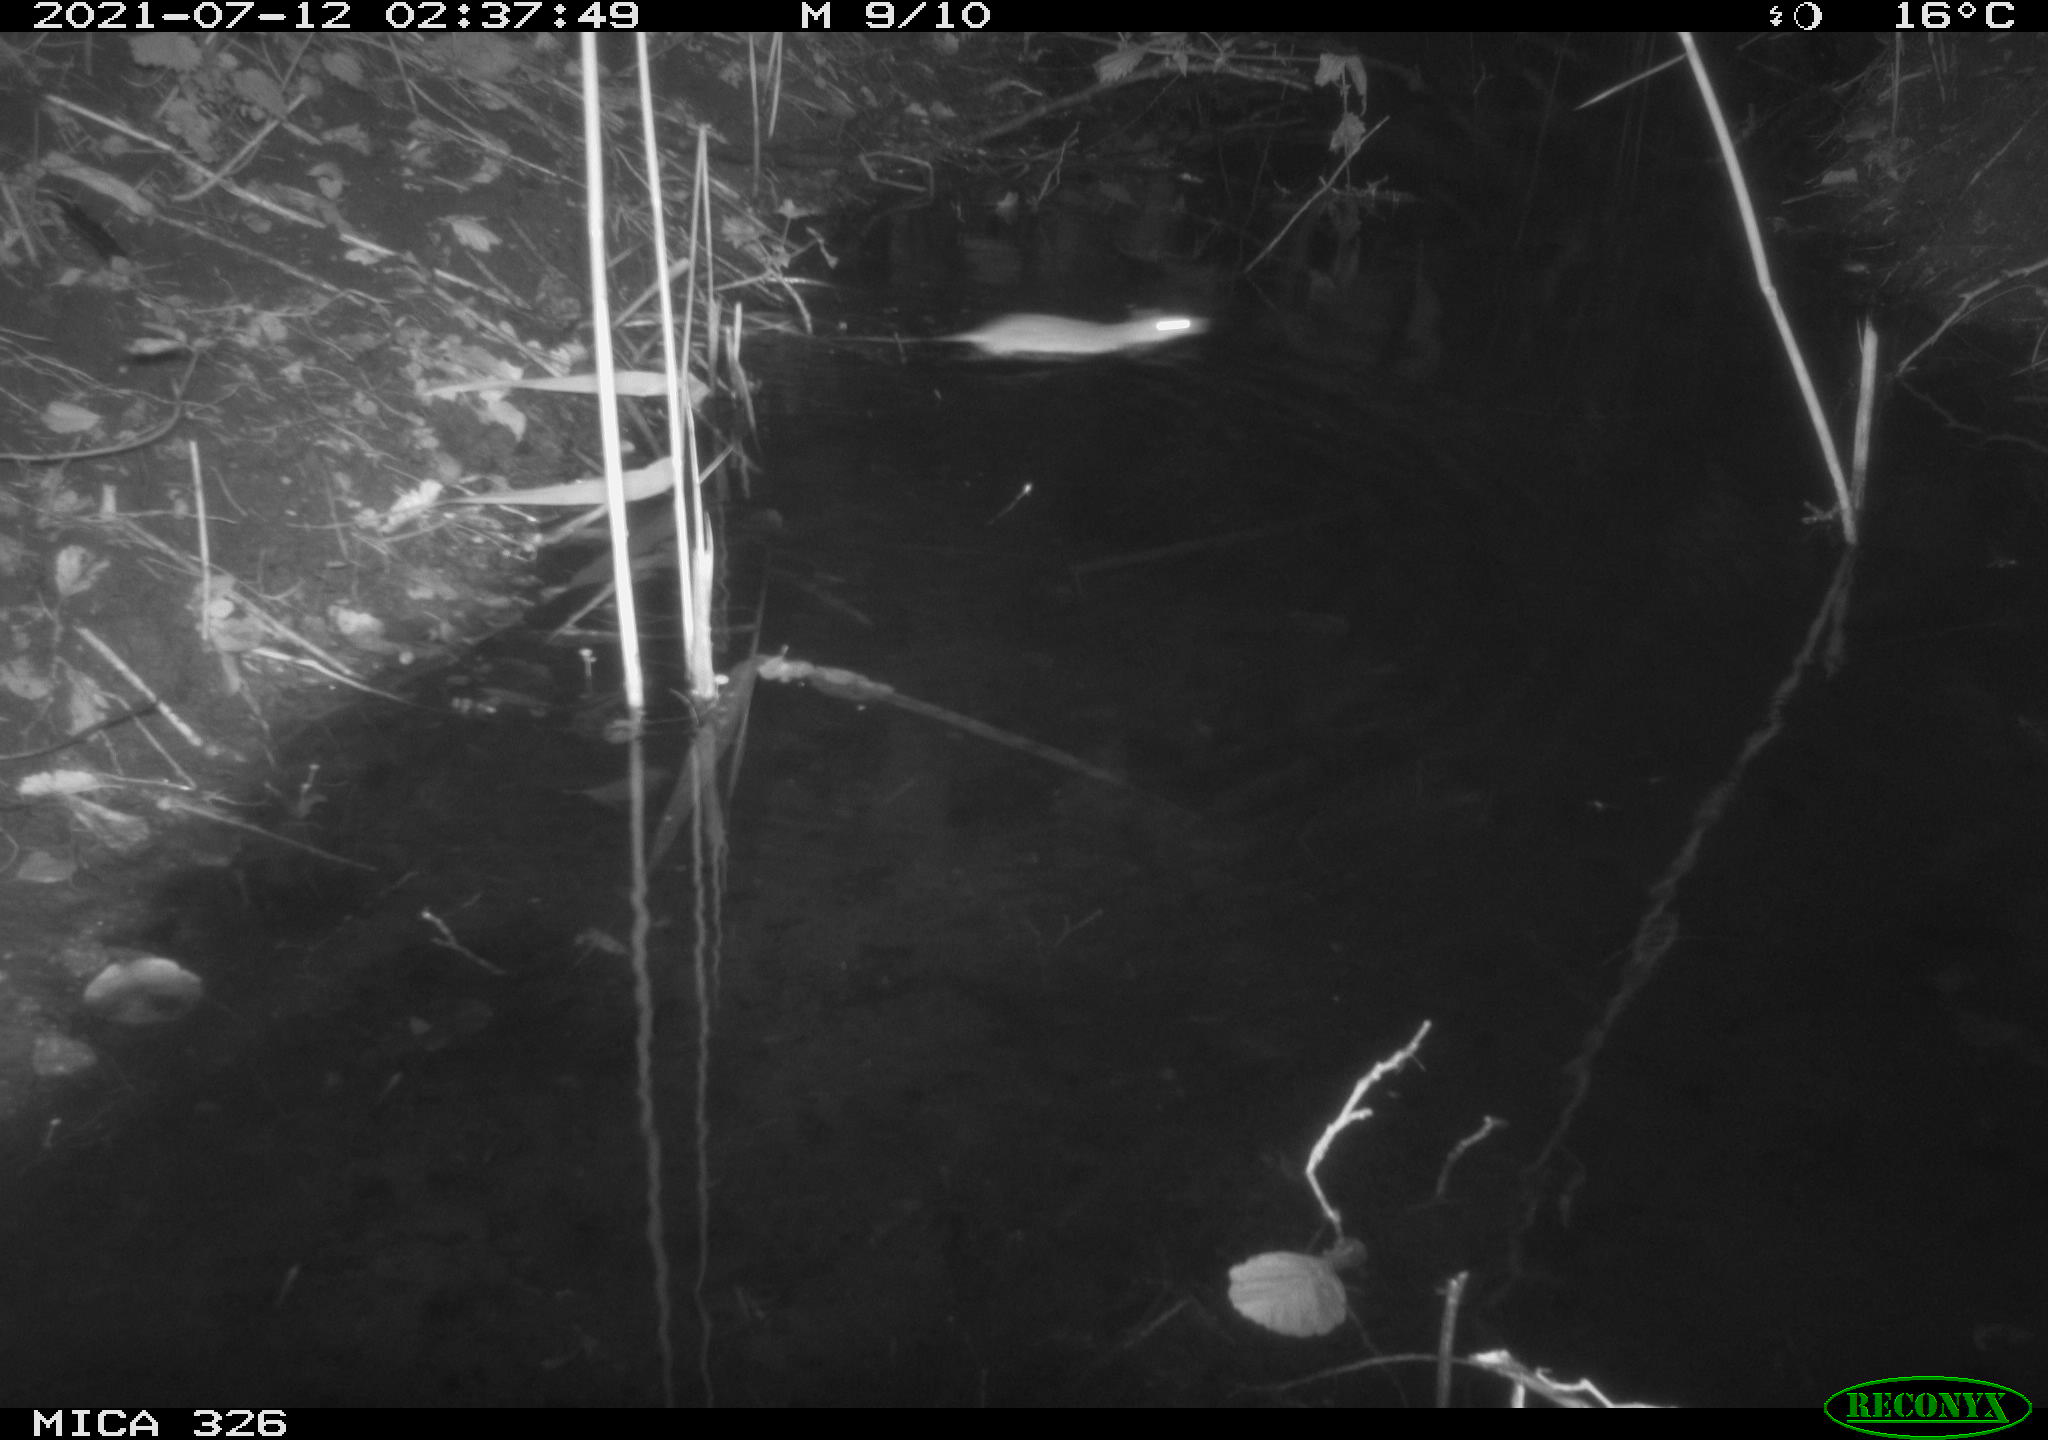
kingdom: Animalia
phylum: Chordata
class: Mammalia
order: Rodentia
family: Muridae
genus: Rattus
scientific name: Rattus norvegicus
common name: Brown rat
